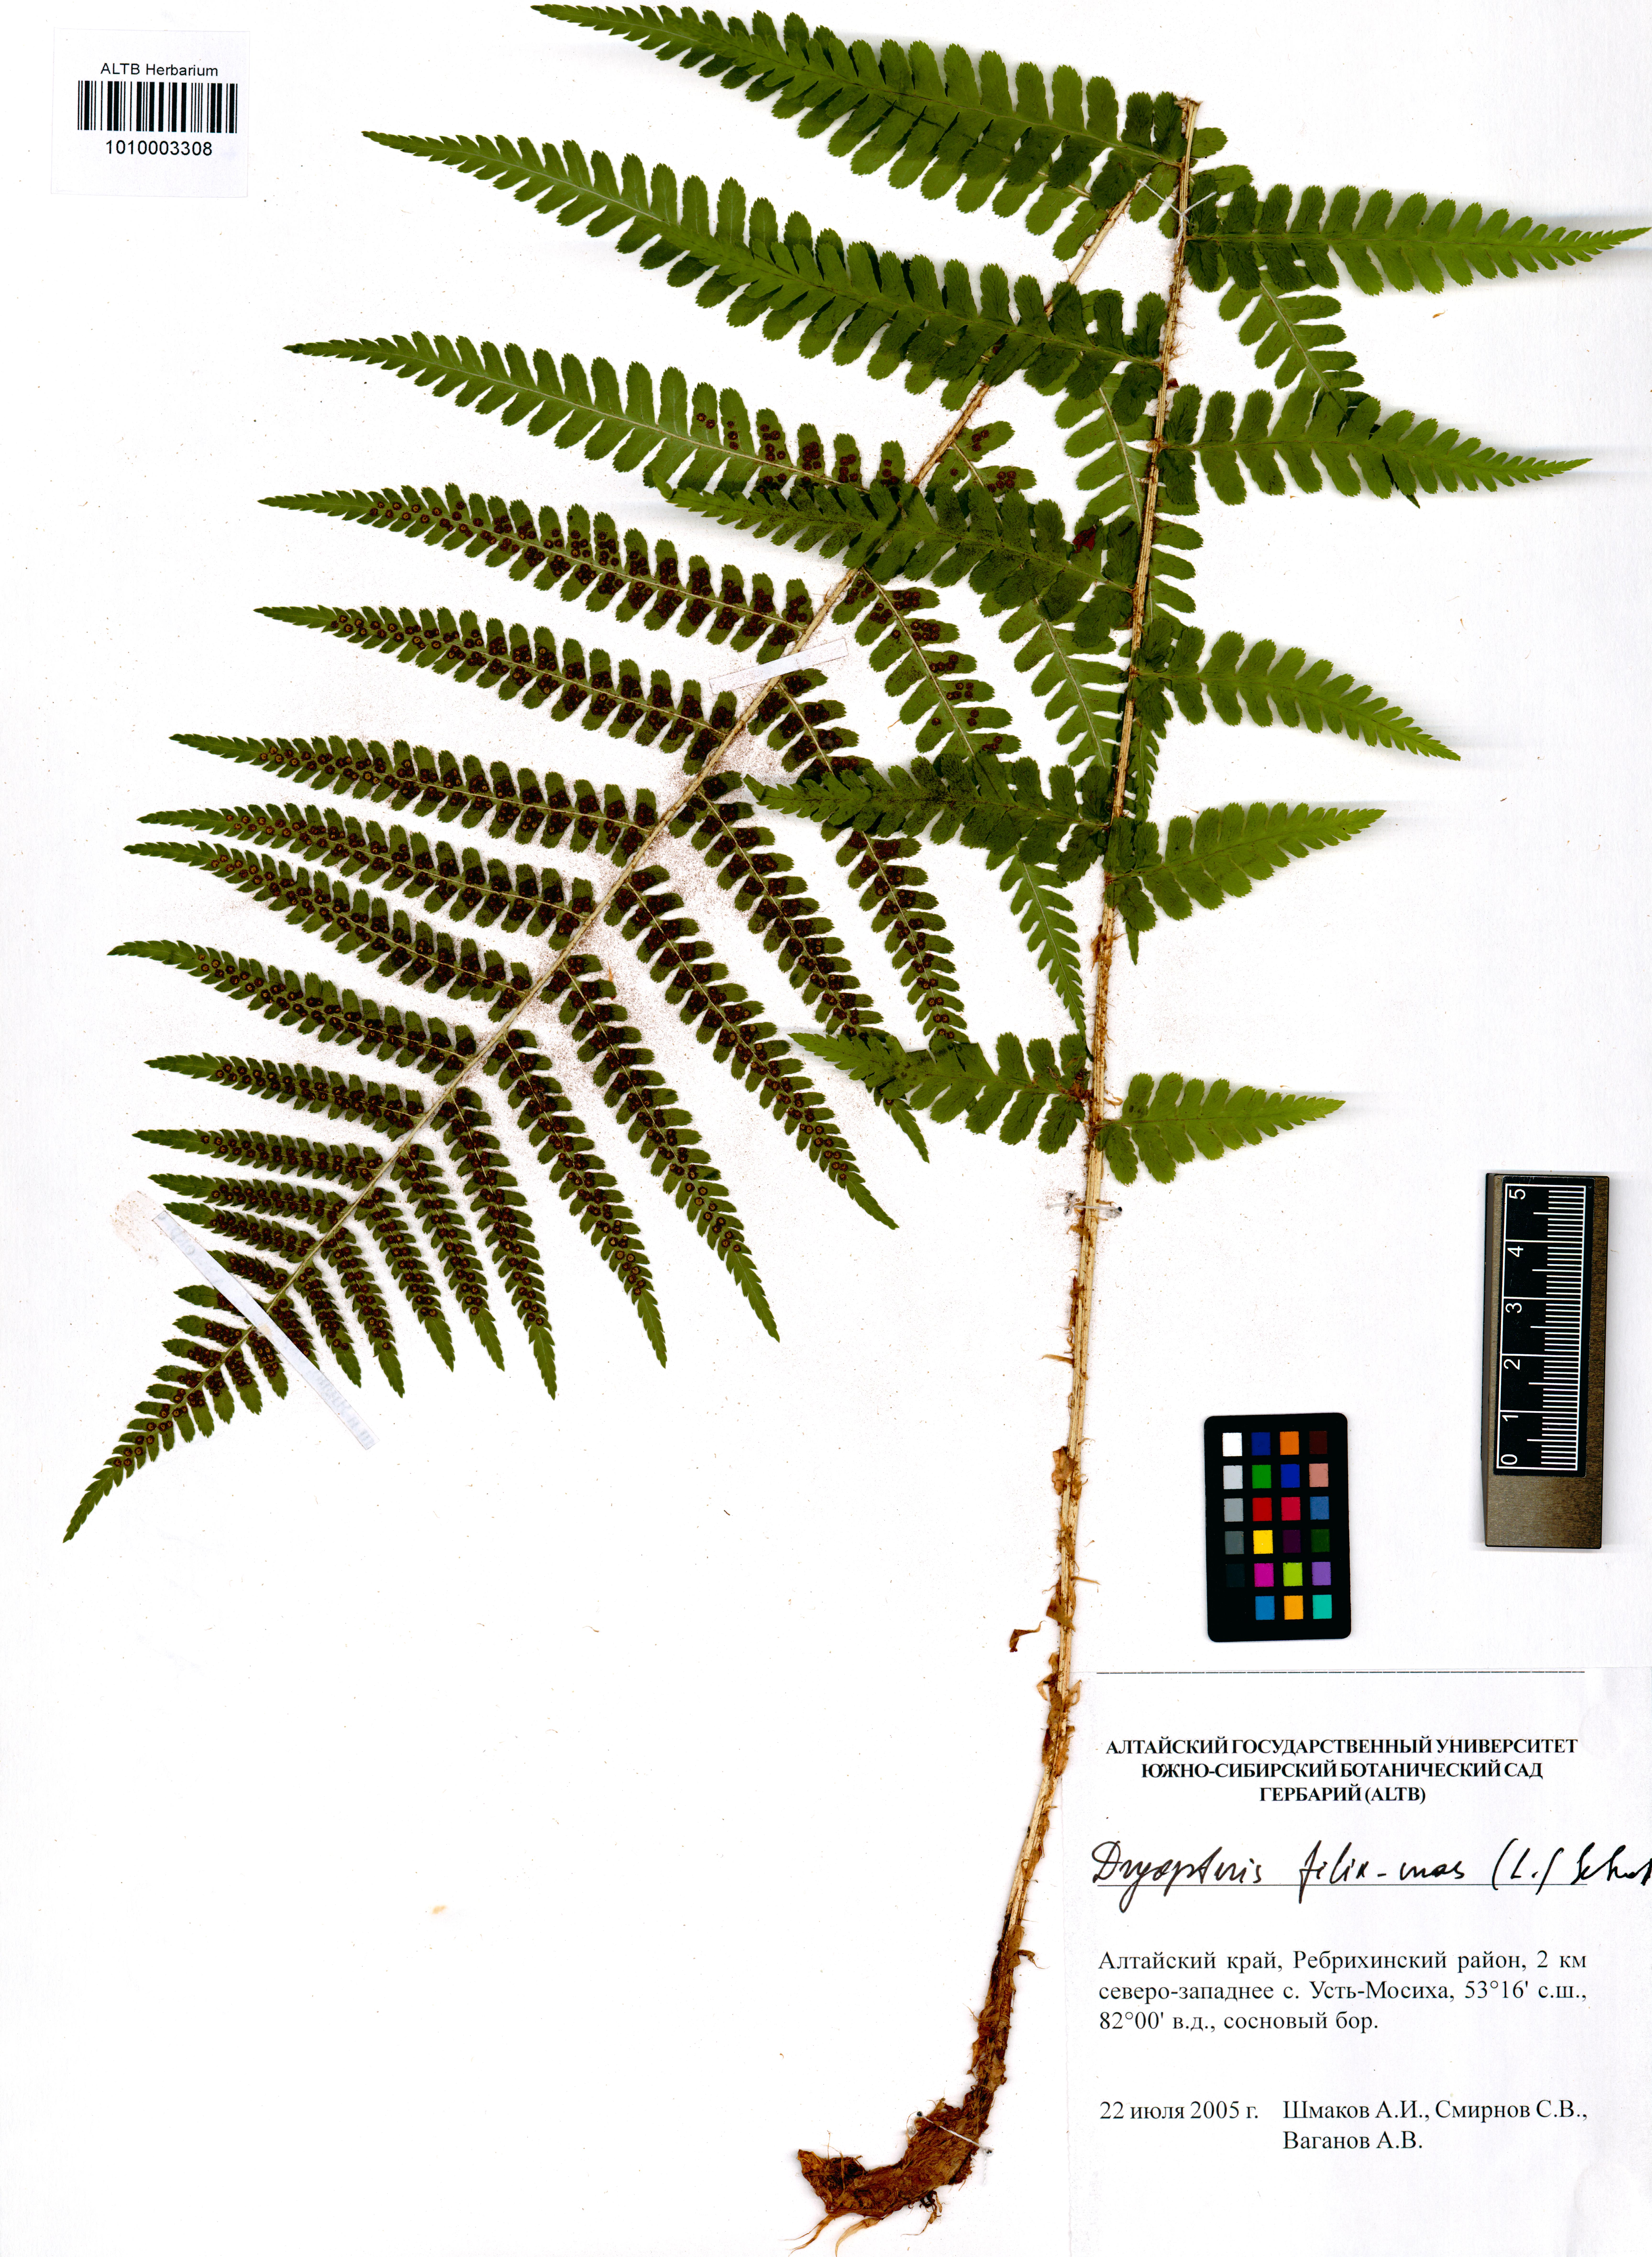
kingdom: Plantae
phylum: Tracheophyta
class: Polypodiopsida
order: Polypodiales
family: Dryopteridaceae
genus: Dryopteris
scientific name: Dryopteris filix-mas
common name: Male fern
